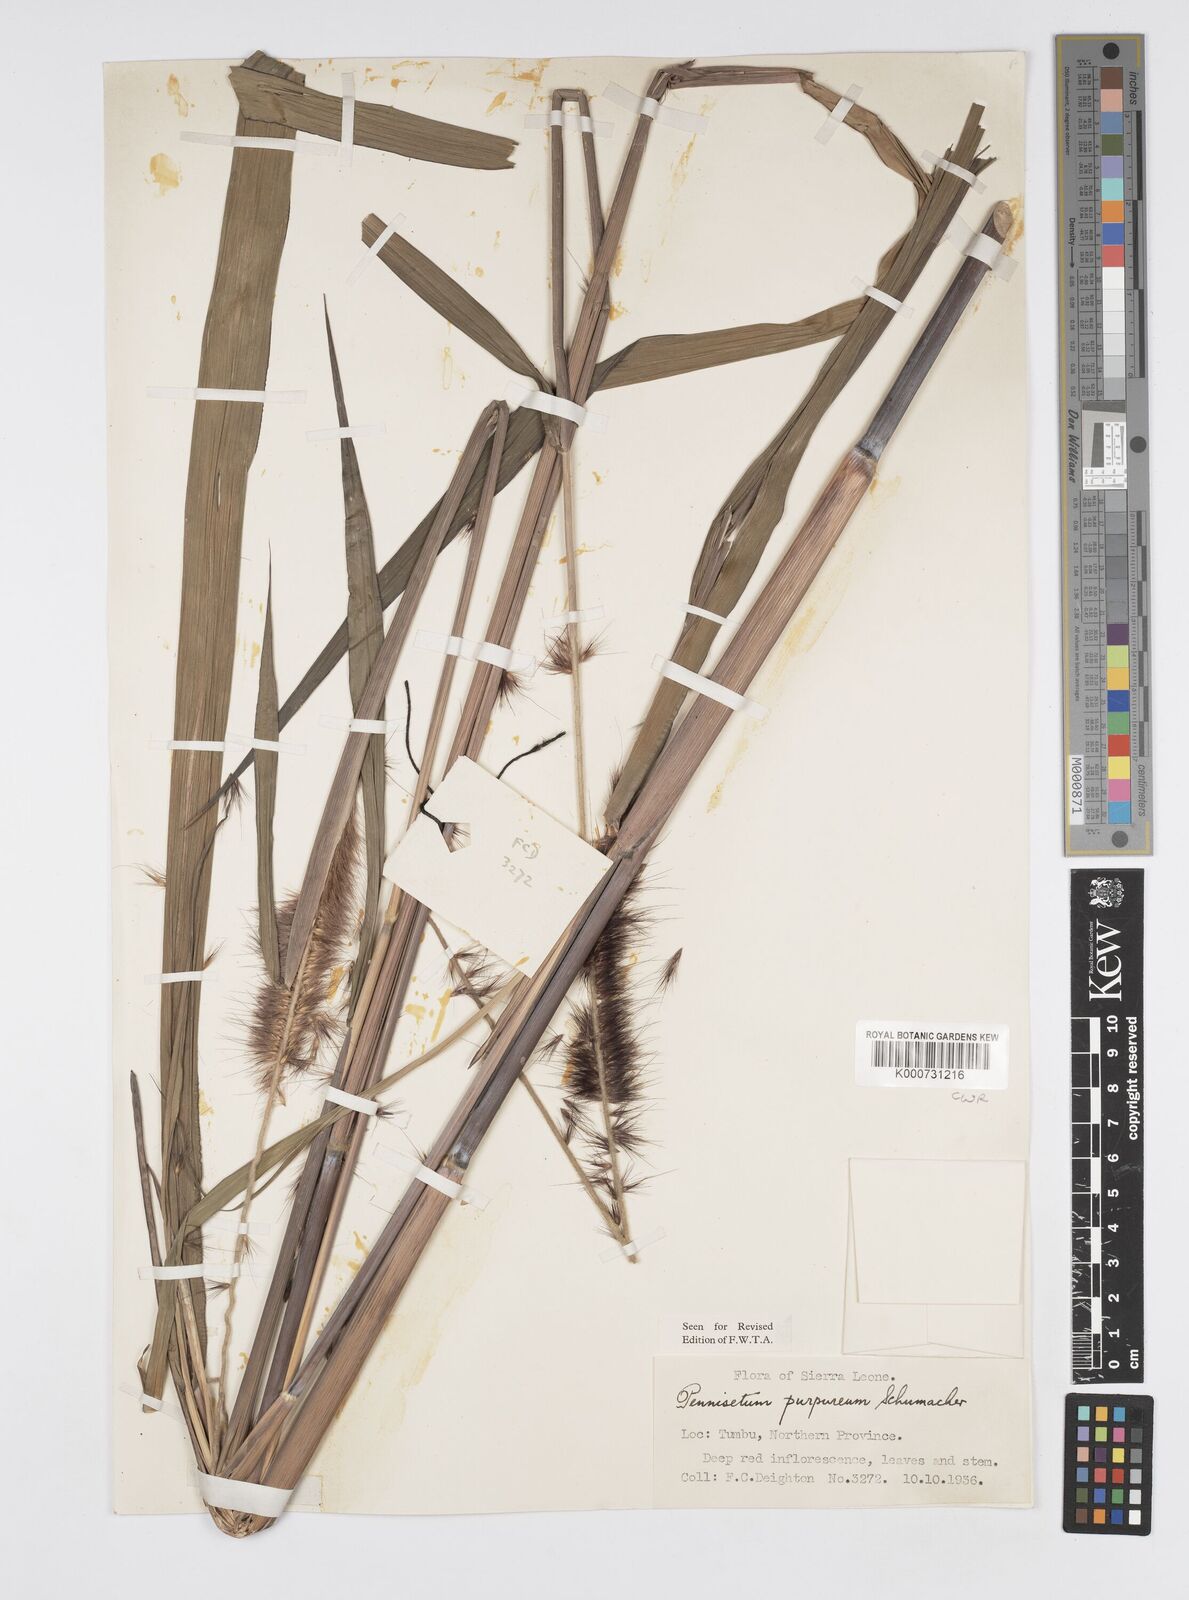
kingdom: Plantae
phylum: Tracheophyta
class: Liliopsida
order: Poales
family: Poaceae
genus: Cenchrus
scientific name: Cenchrus purpureus
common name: Elephant grass
